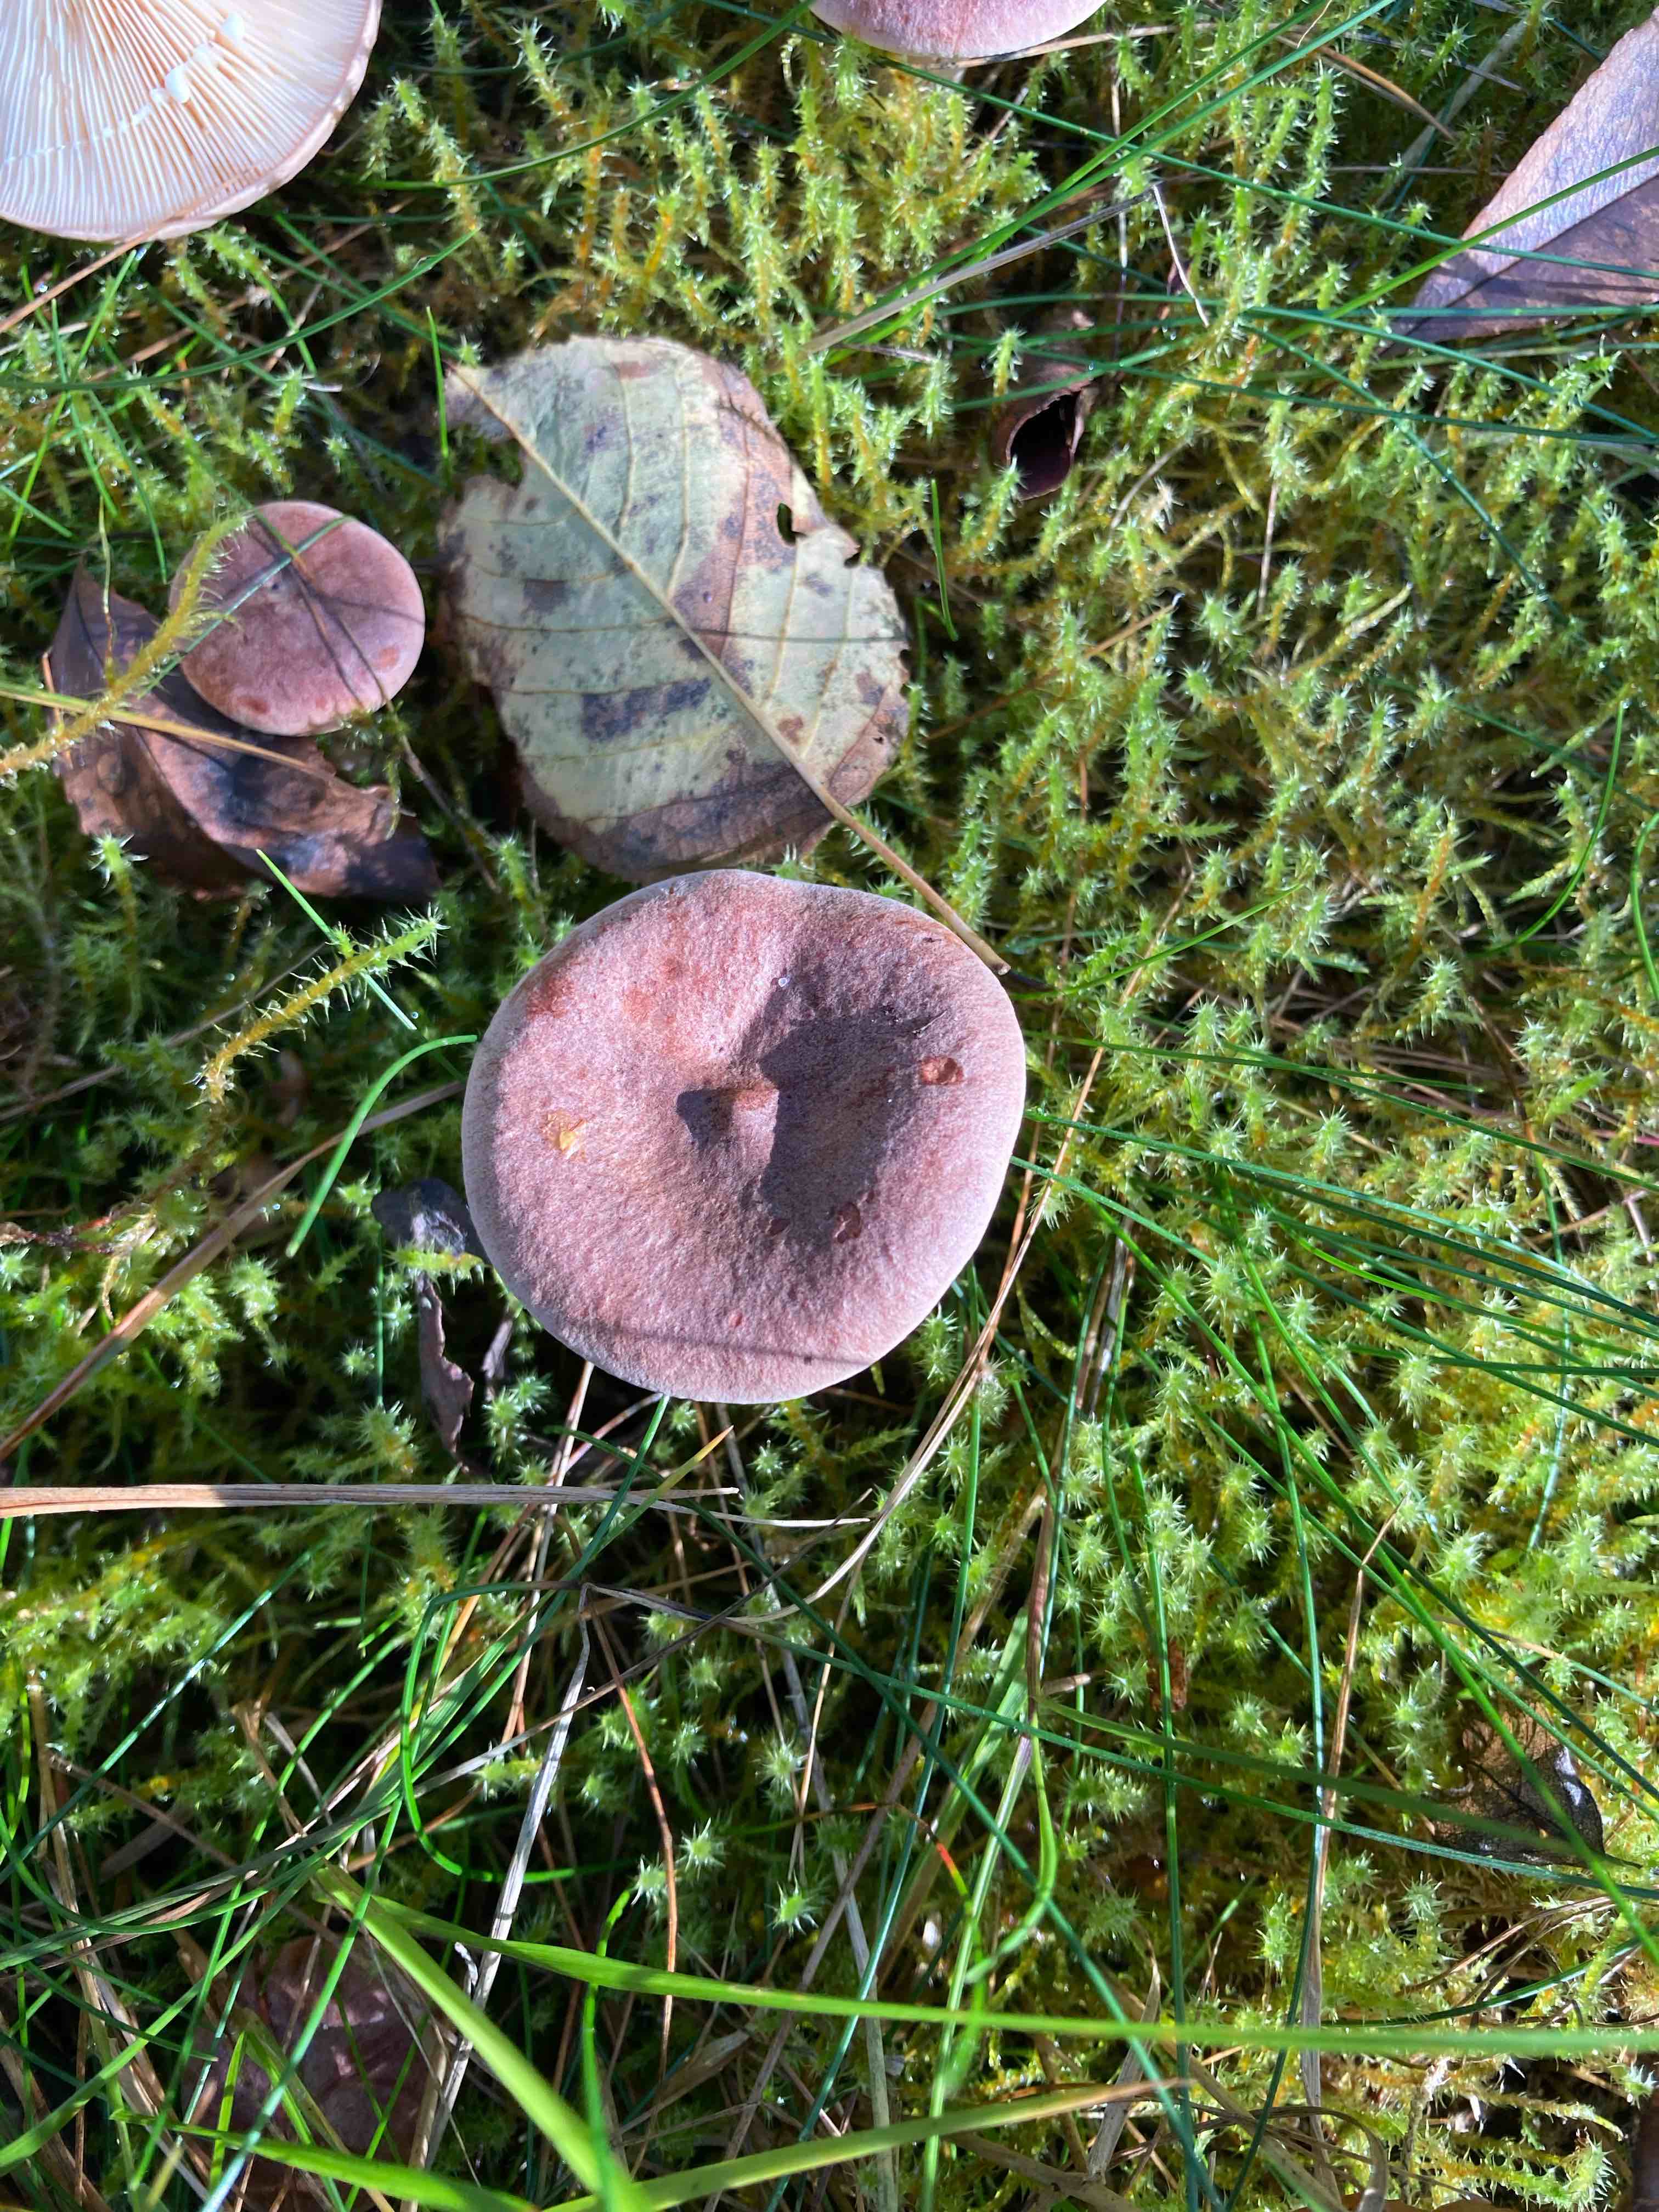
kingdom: Fungi
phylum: Basidiomycota
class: Agaricomycetes
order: Russulales
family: Russulaceae
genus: Lactarius
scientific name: Lactarius rufus
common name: rødbrun mælkehat
